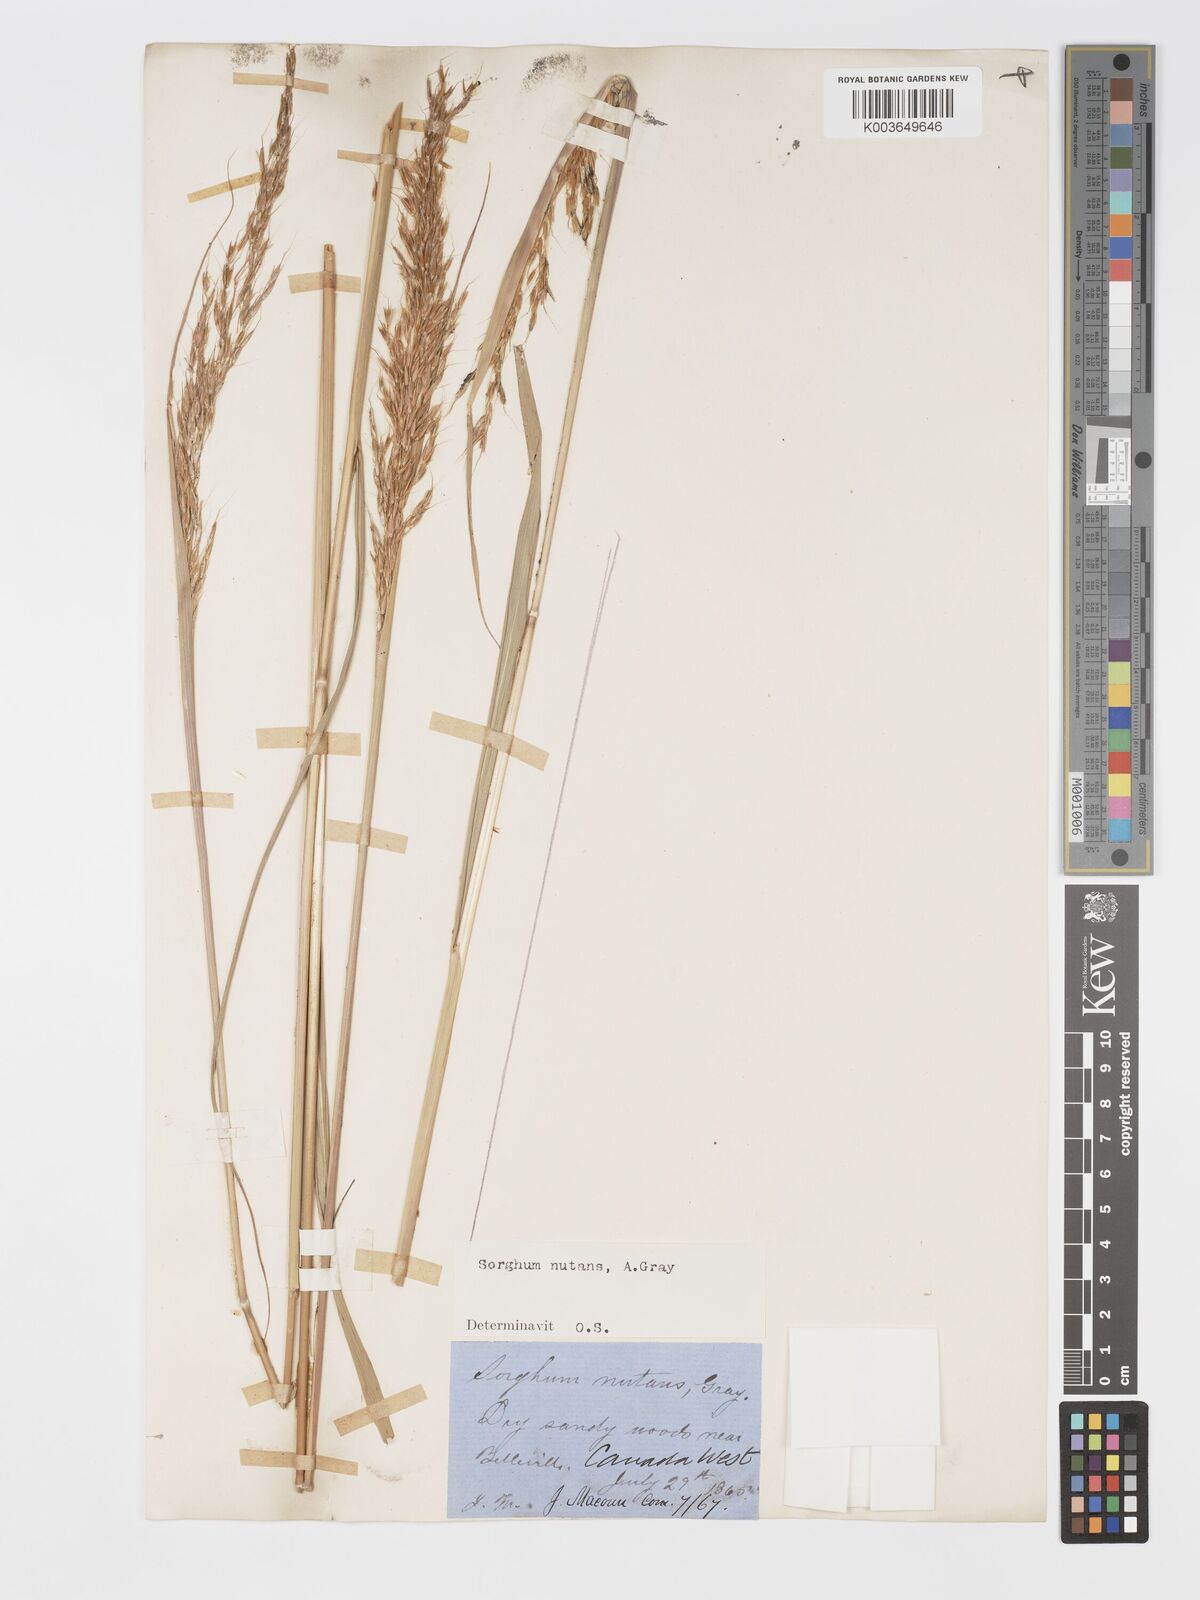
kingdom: Plantae
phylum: Tracheophyta
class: Liliopsida
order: Poales
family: Poaceae
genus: Sorghastrum
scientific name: Sorghastrum nutans
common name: Indian grass
